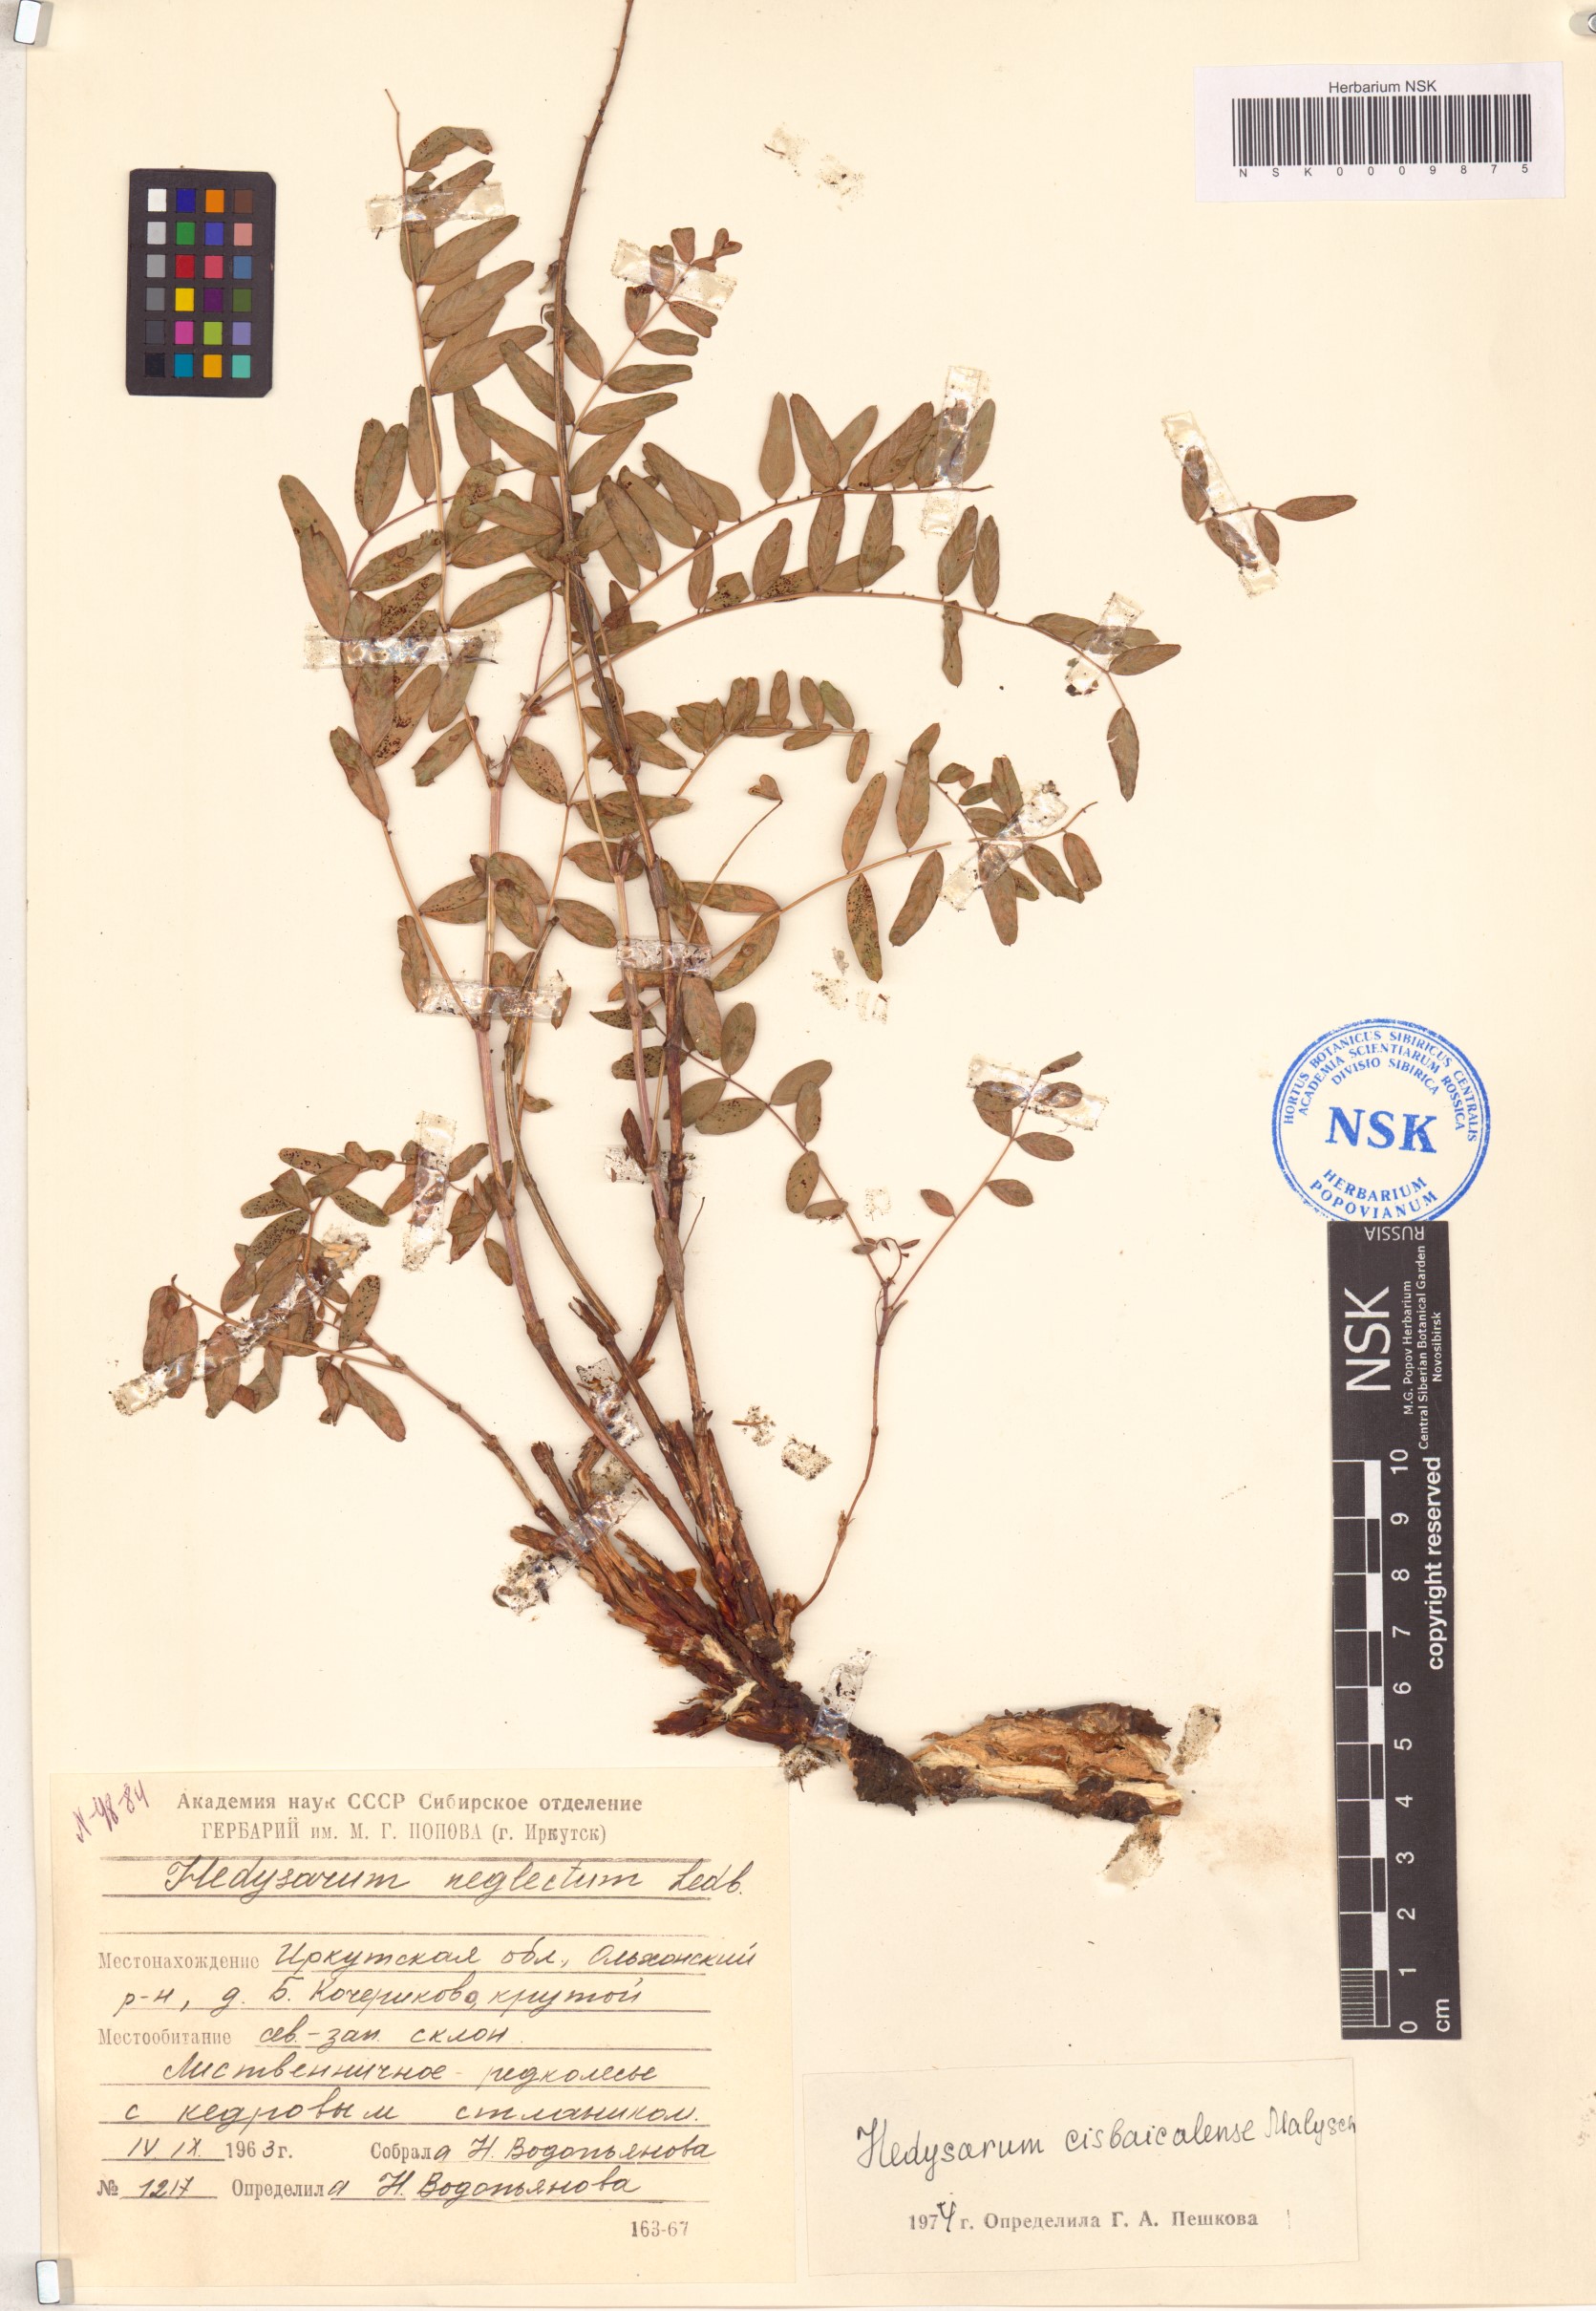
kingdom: Plantae
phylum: Tracheophyta
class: Magnoliopsida
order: Fabales
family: Fabaceae
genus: Hedysarum
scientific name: Hedysarum cisbaicalense
